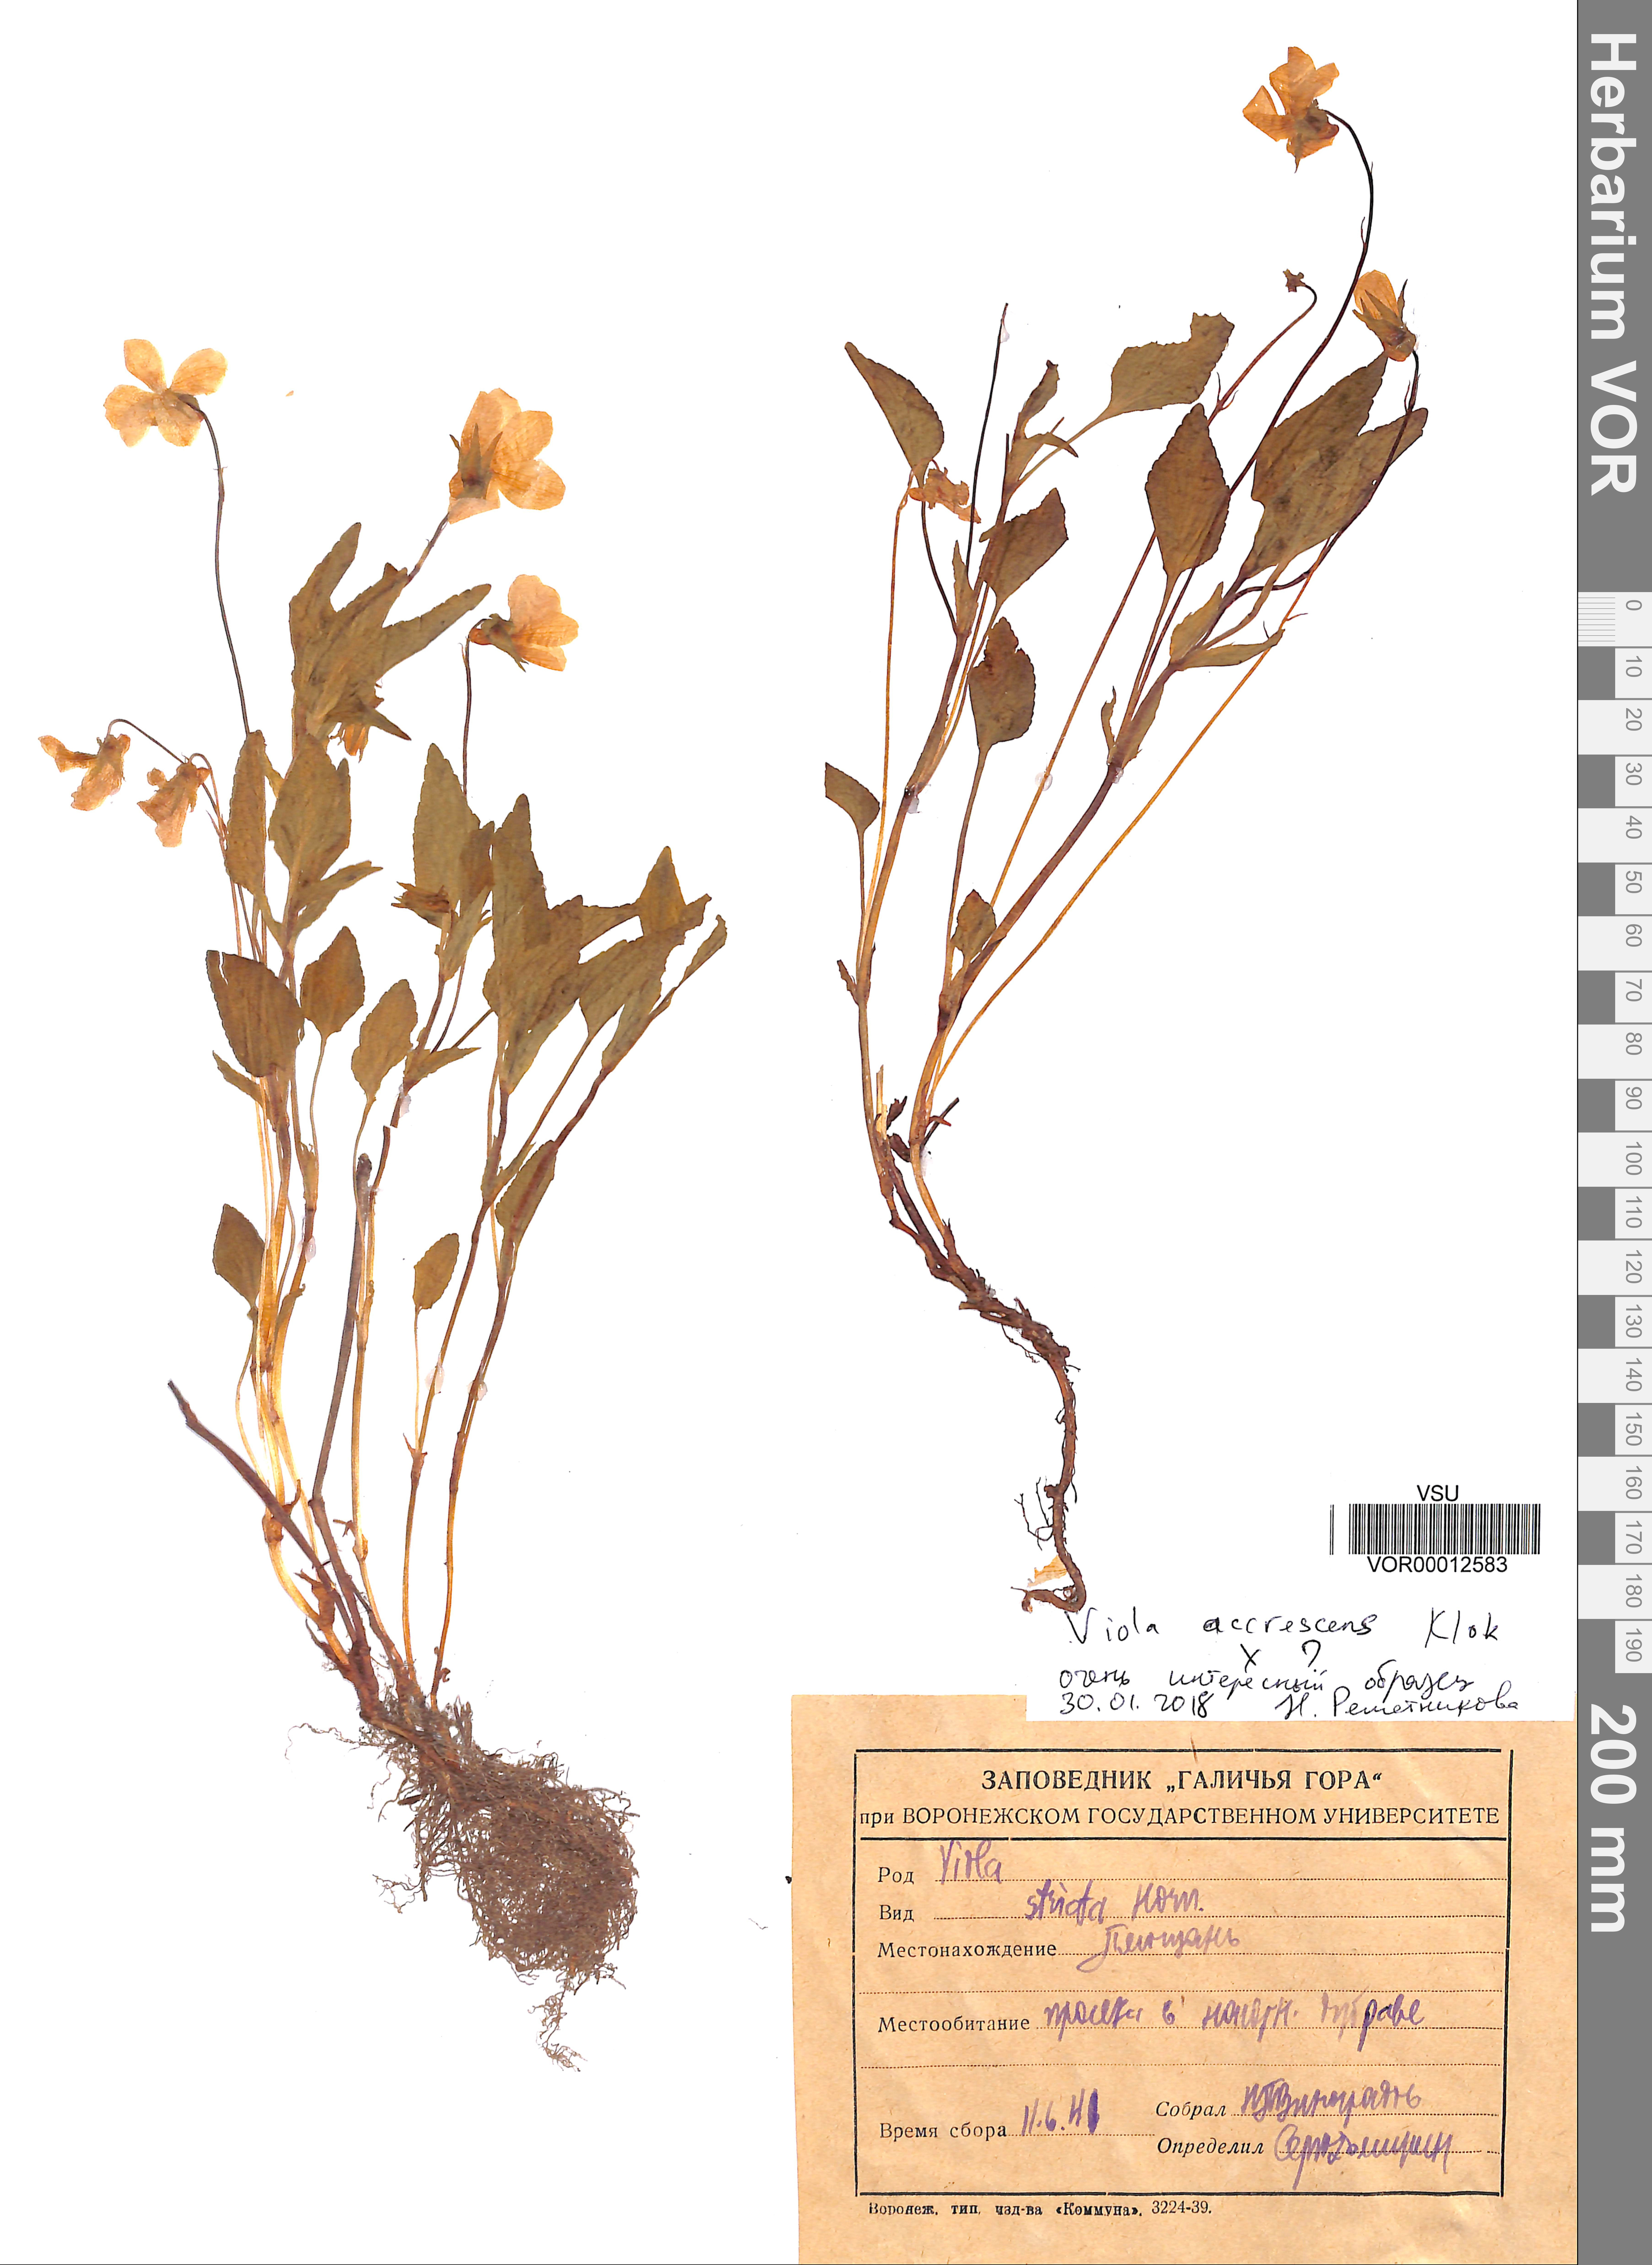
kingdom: Plantae
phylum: Tracheophyta
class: Magnoliopsida
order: Malpighiales
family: Violaceae
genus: Viola
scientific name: Viola pumila
